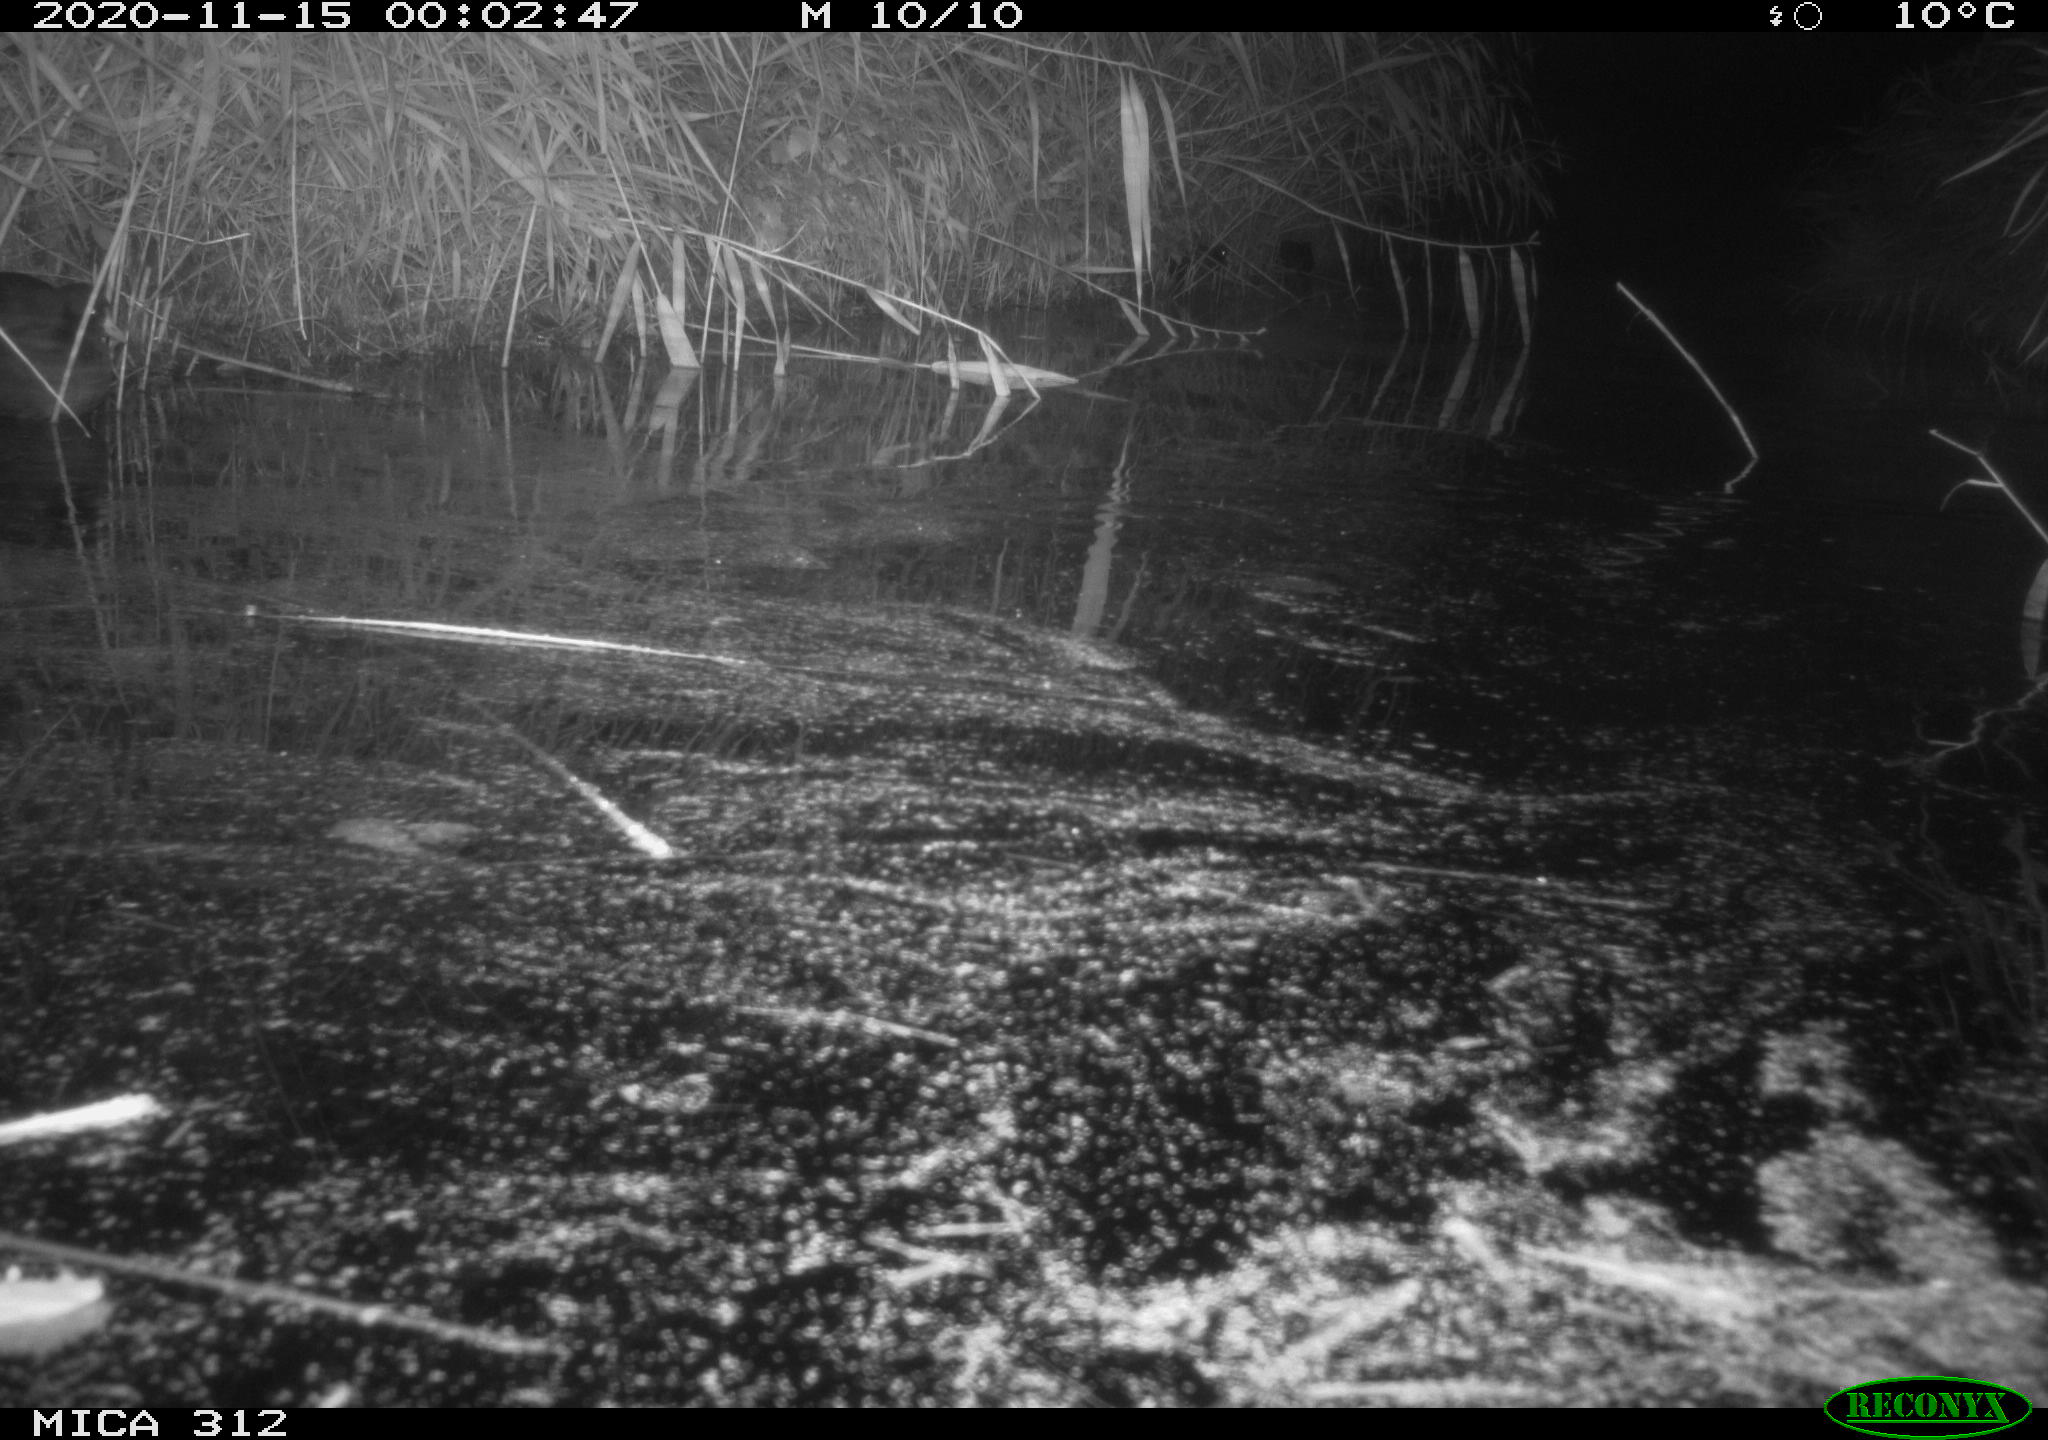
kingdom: Animalia
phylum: Chordata
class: Aves
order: Gruiformes
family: Rallidae
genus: Gallinula
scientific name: Gallinula chloropus
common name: Common moorhen
